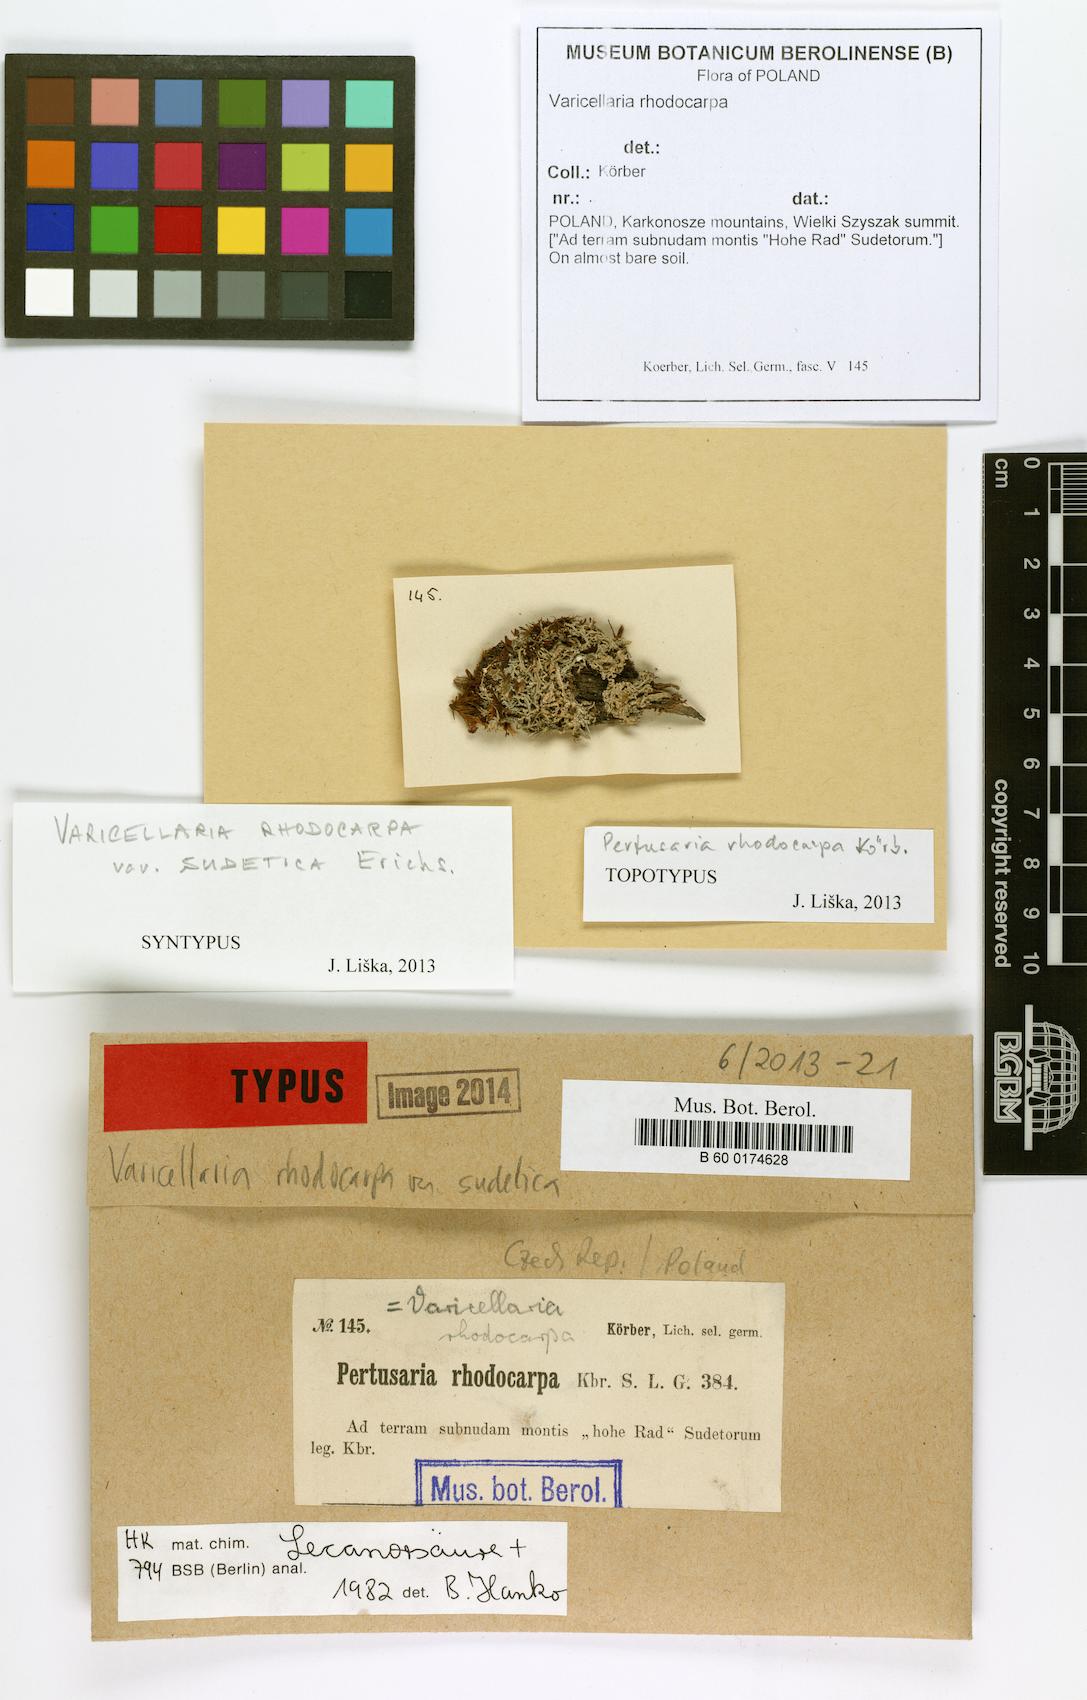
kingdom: Fungi
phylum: Ascomycota
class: Lecanoromycetes
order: Pertusariales
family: Varicellariaceae
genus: Varicellaria
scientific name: Varicellaria rhodocarpa
